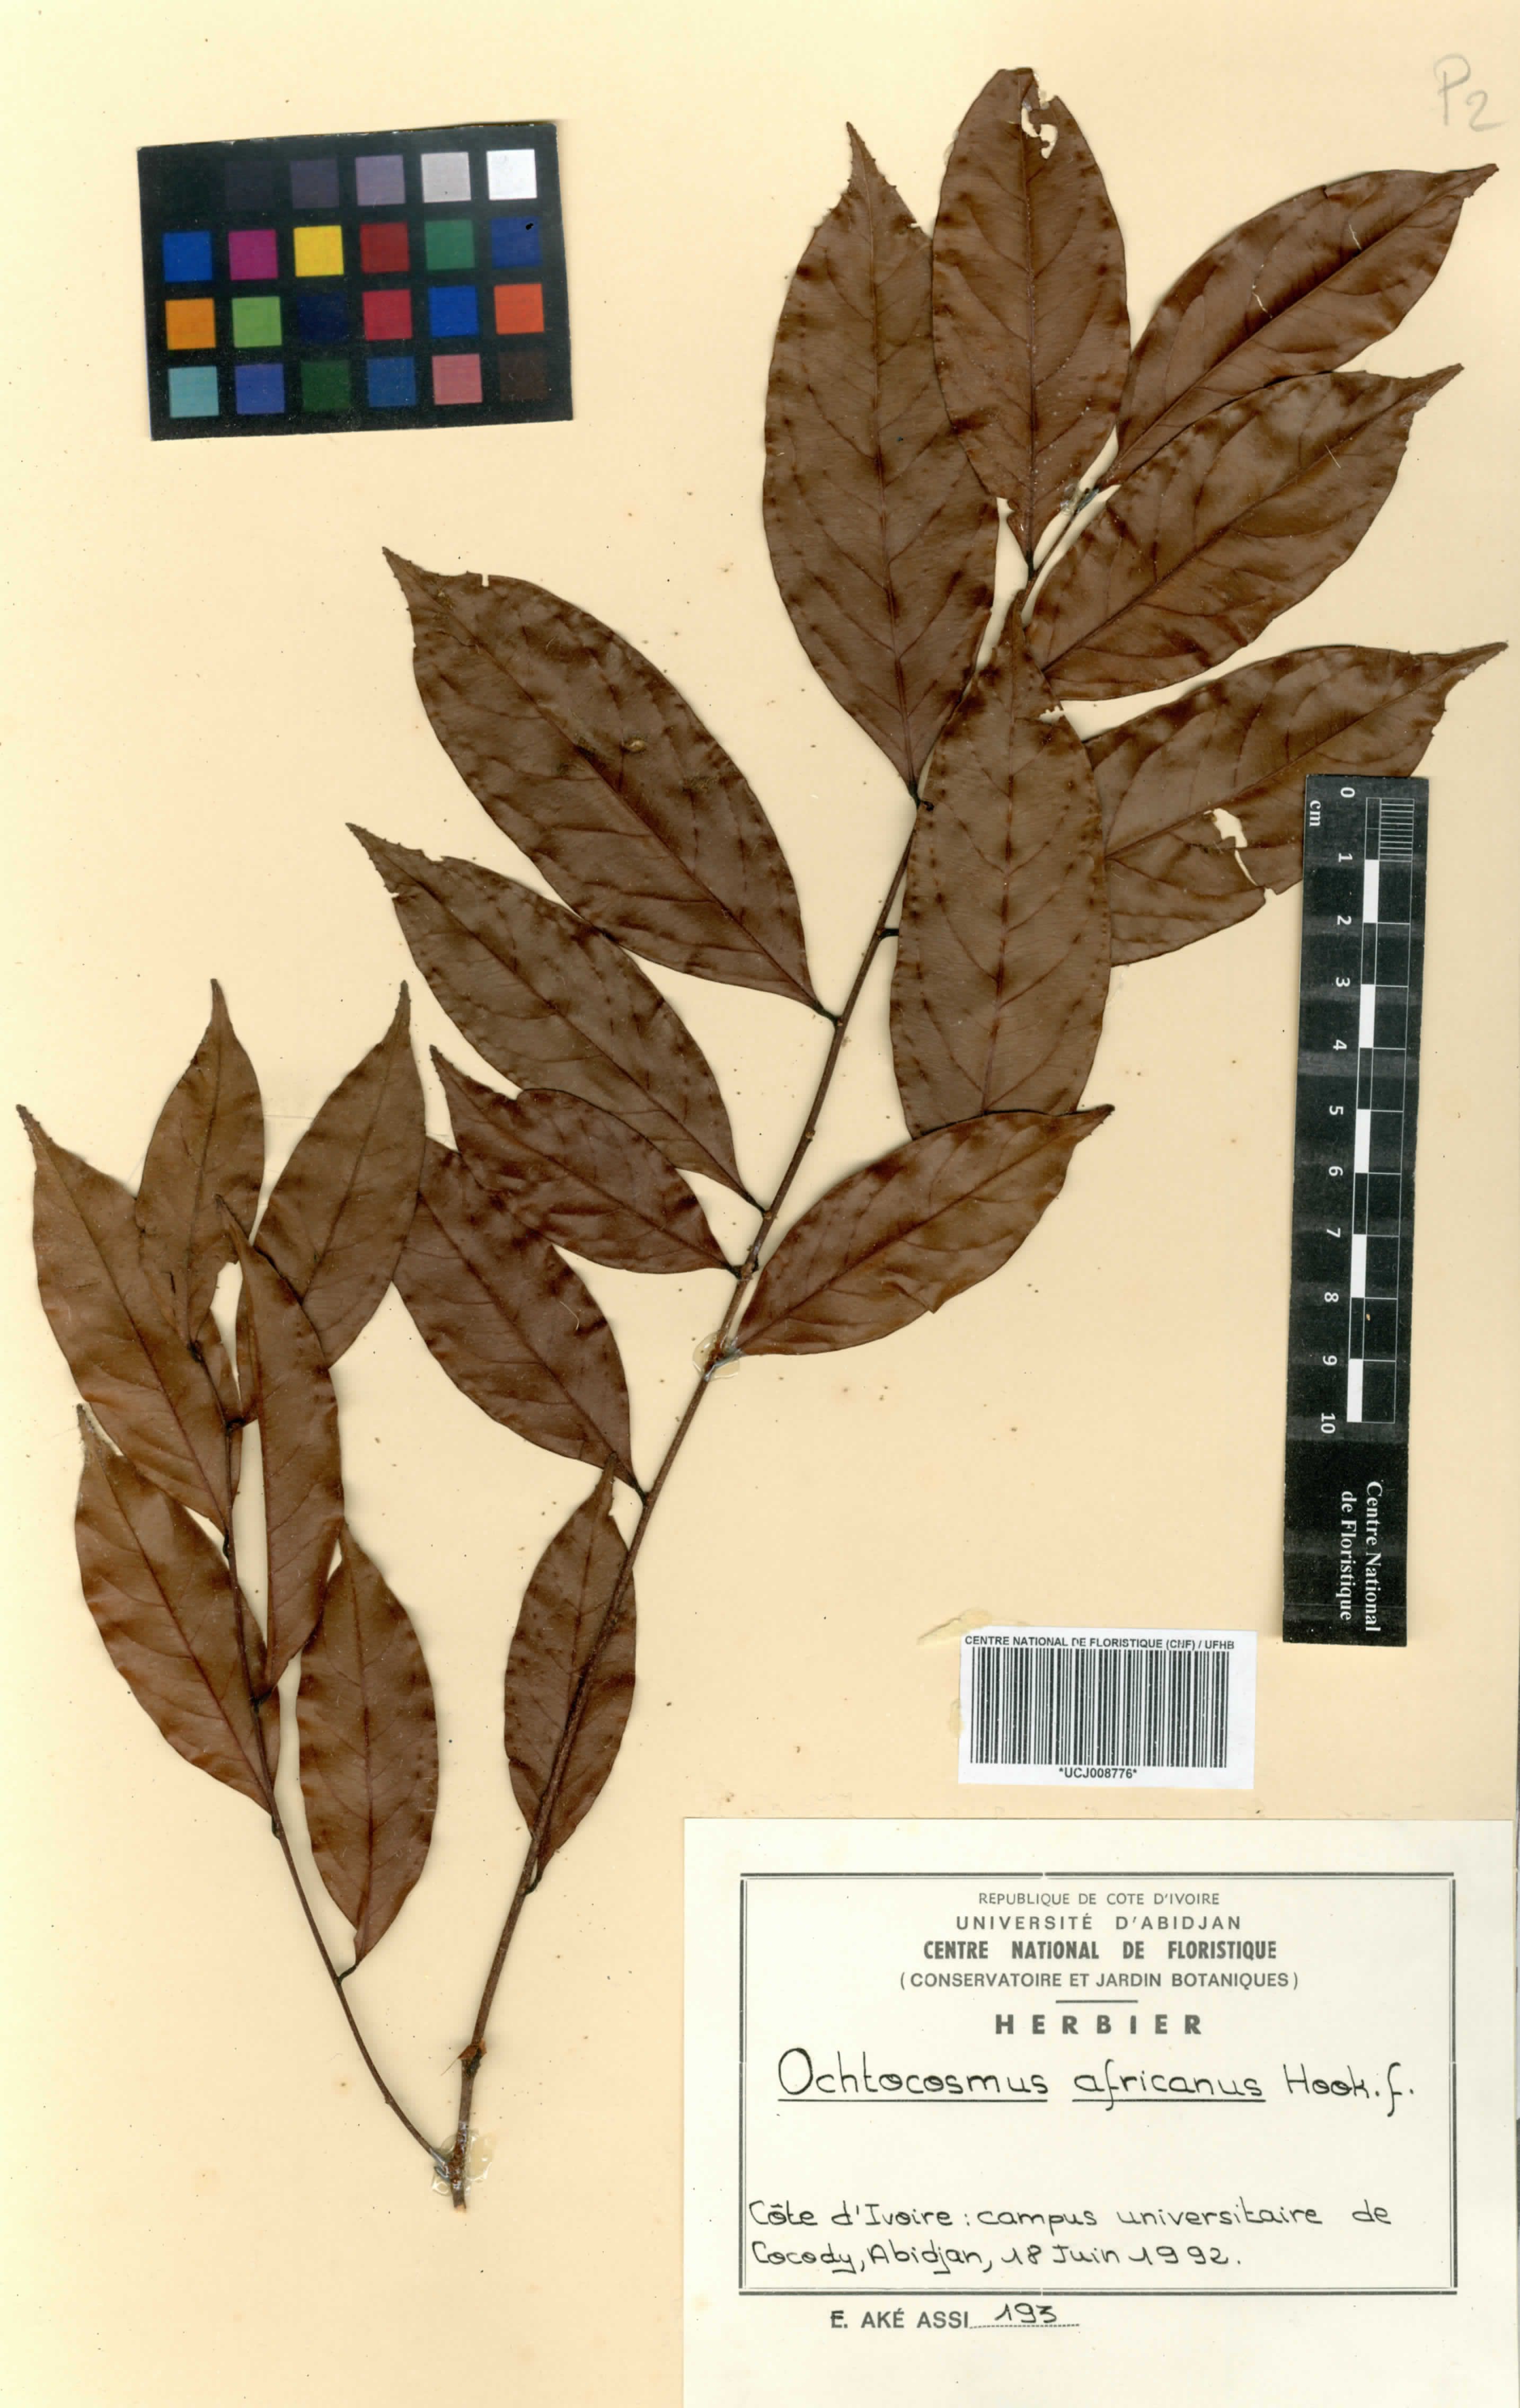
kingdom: Plantae
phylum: Tracheophyta
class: Magnoliopsida
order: Malpighiales
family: Ixonanthaceae
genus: Phyllocosmus
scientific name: Phyllocosmus africanus
